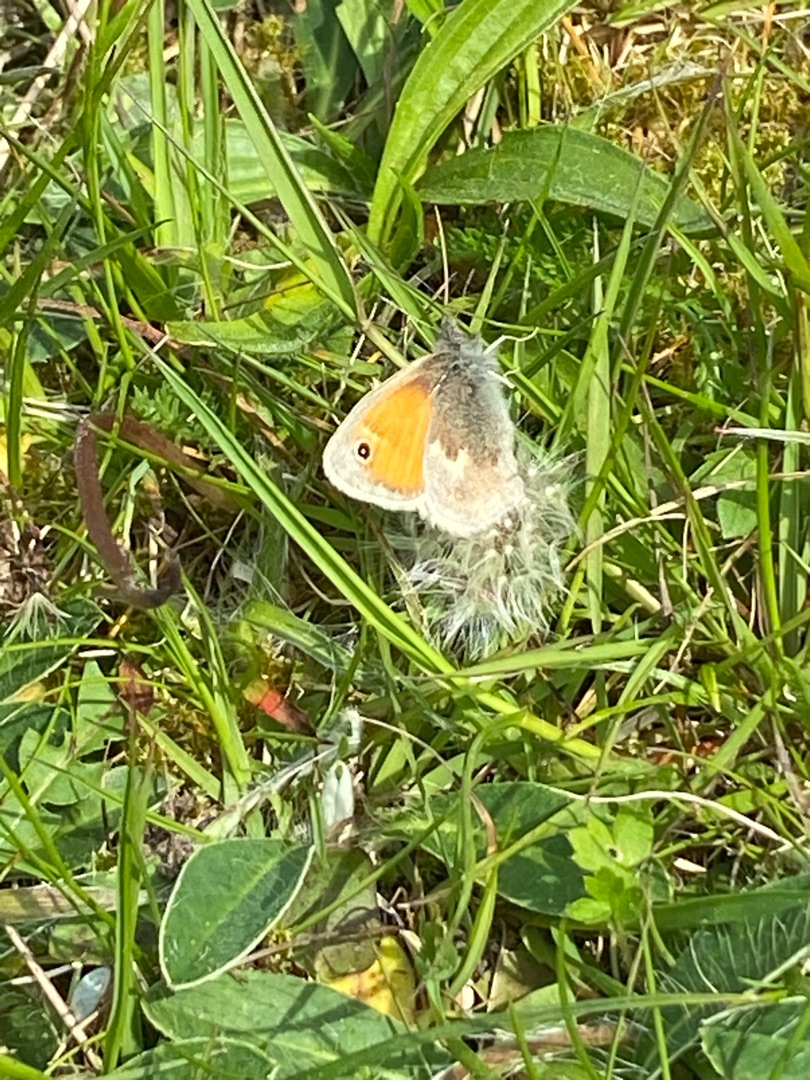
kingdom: Animalia
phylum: Arthropoda
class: Insecta
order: Lepidoptera
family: Nymphalidae
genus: Coenonympha
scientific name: Coenonympha pamphilus
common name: Okkergul randøje
